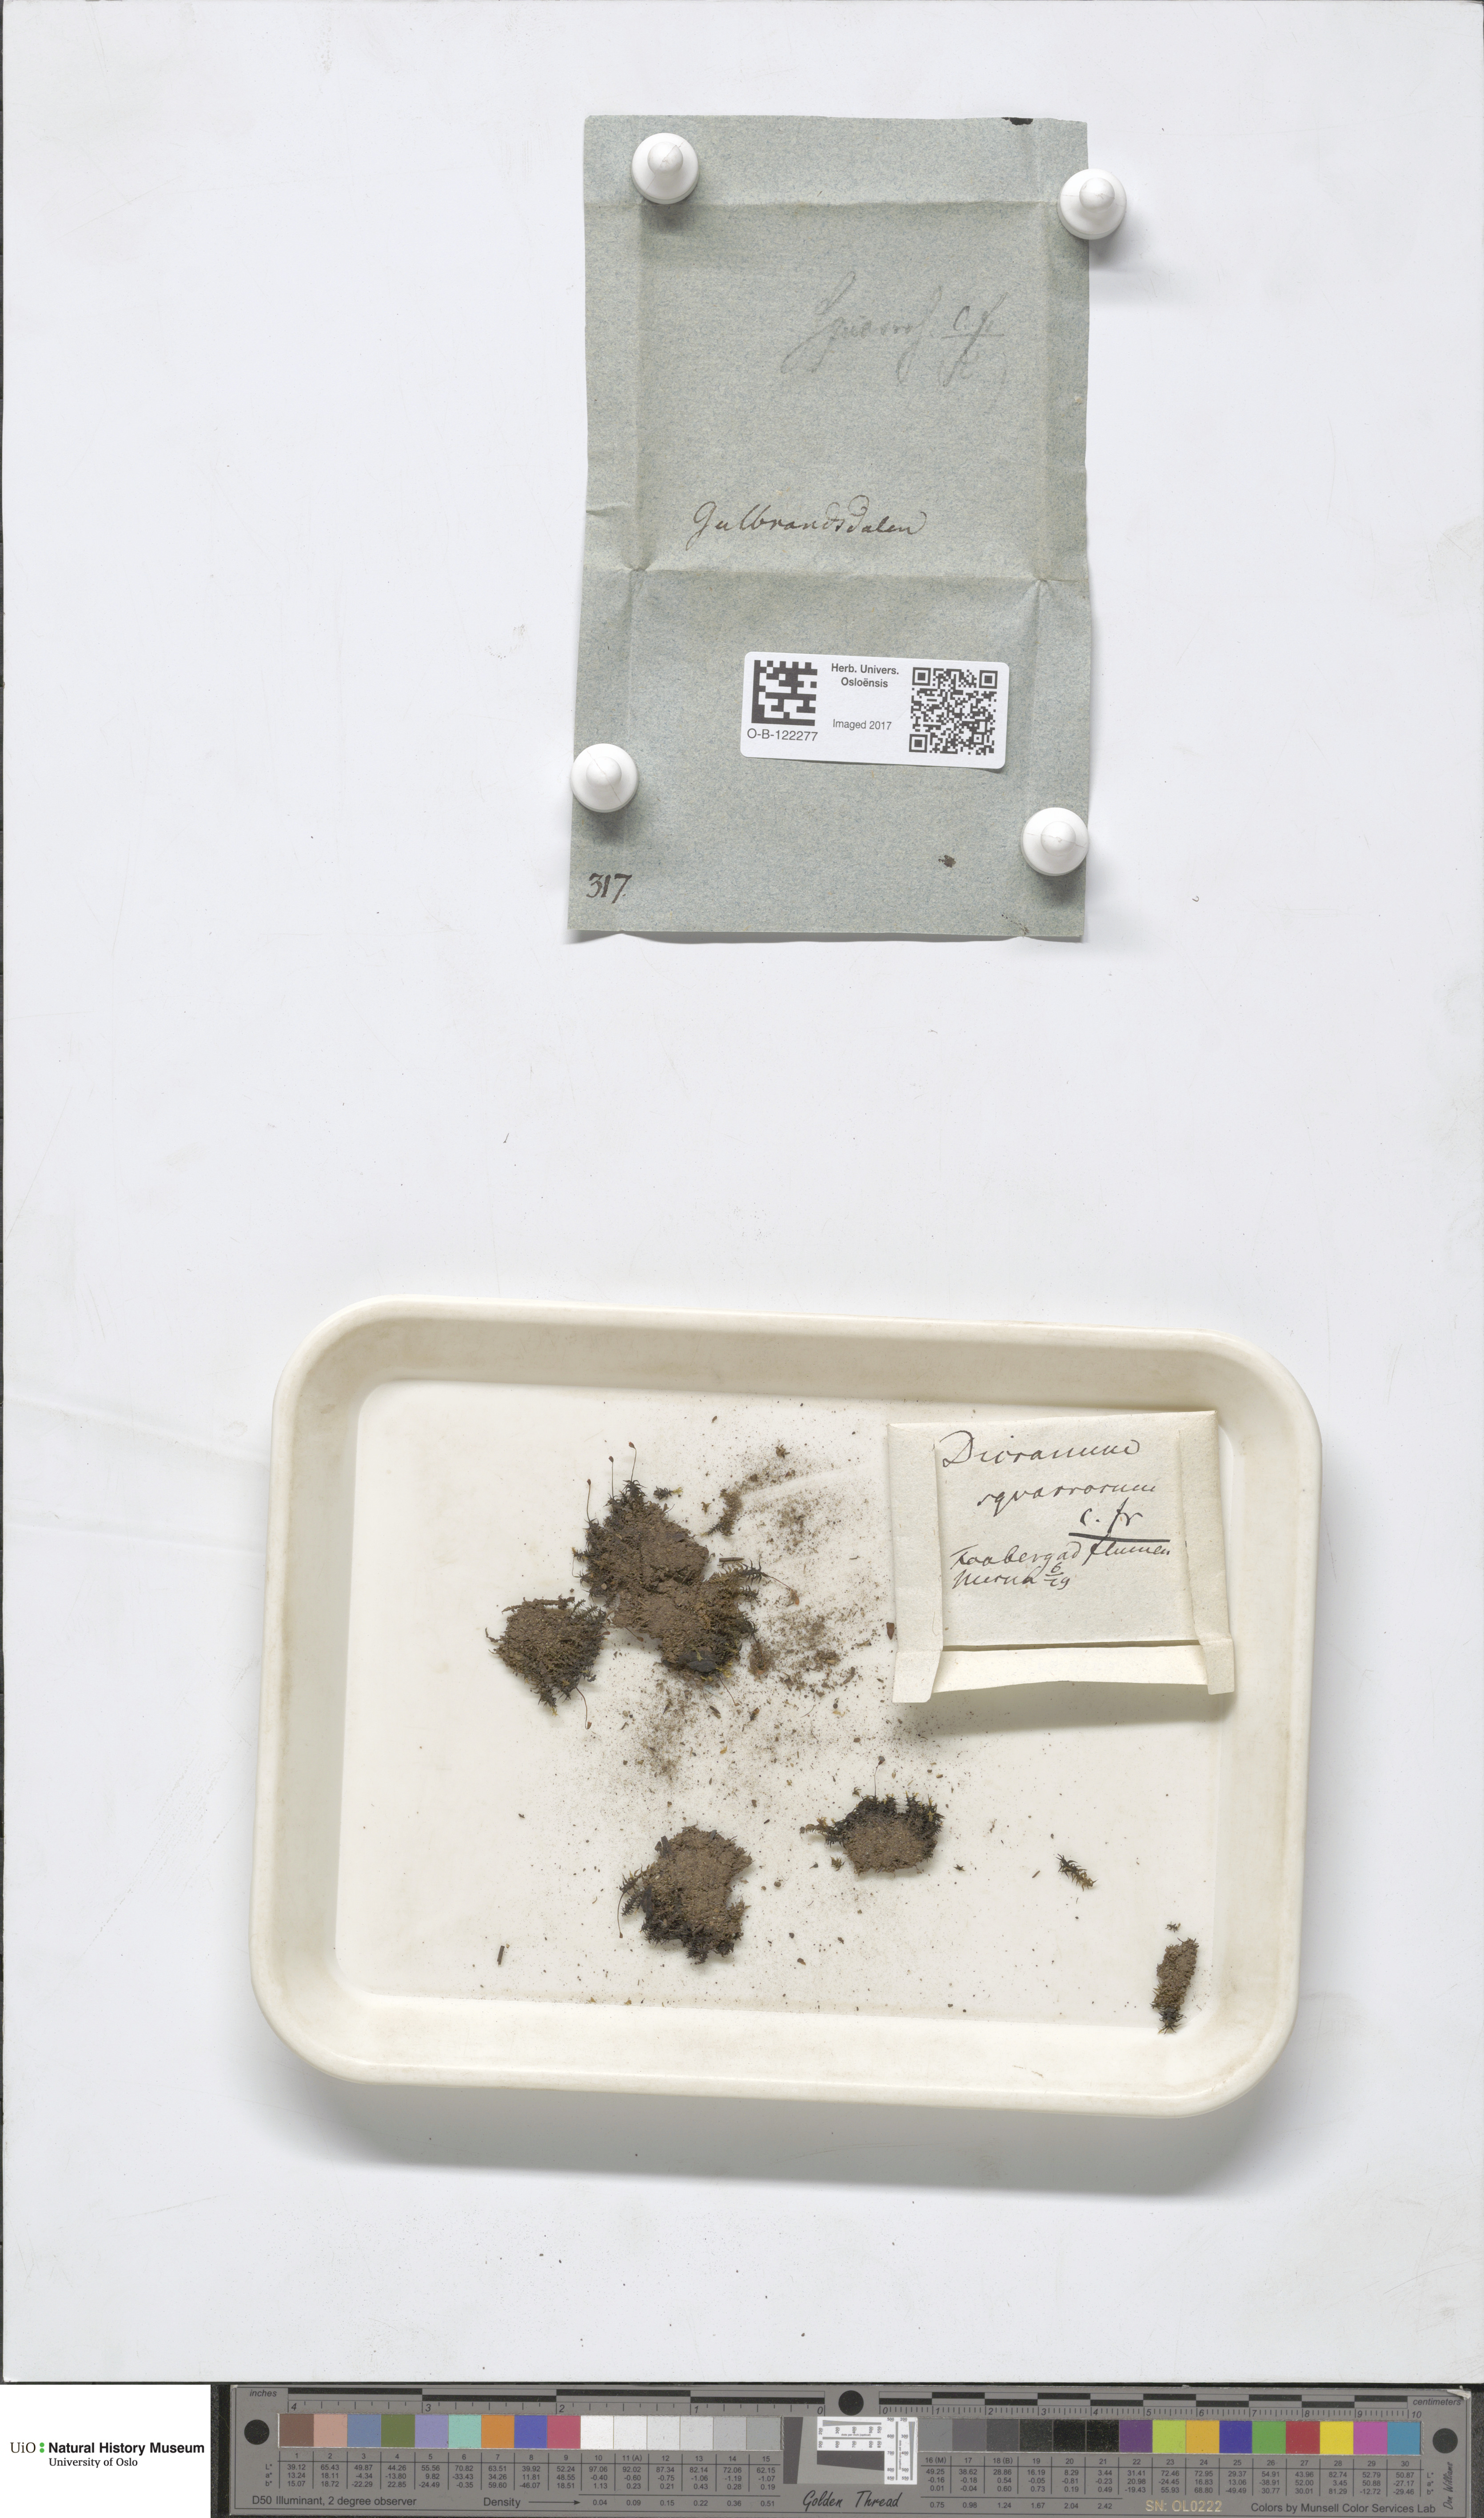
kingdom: Plantae
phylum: Bryophyta
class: Bryopsida
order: Dicranales
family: Aongstroemiaceae
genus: Diobelonella
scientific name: Diobelonella palustris
